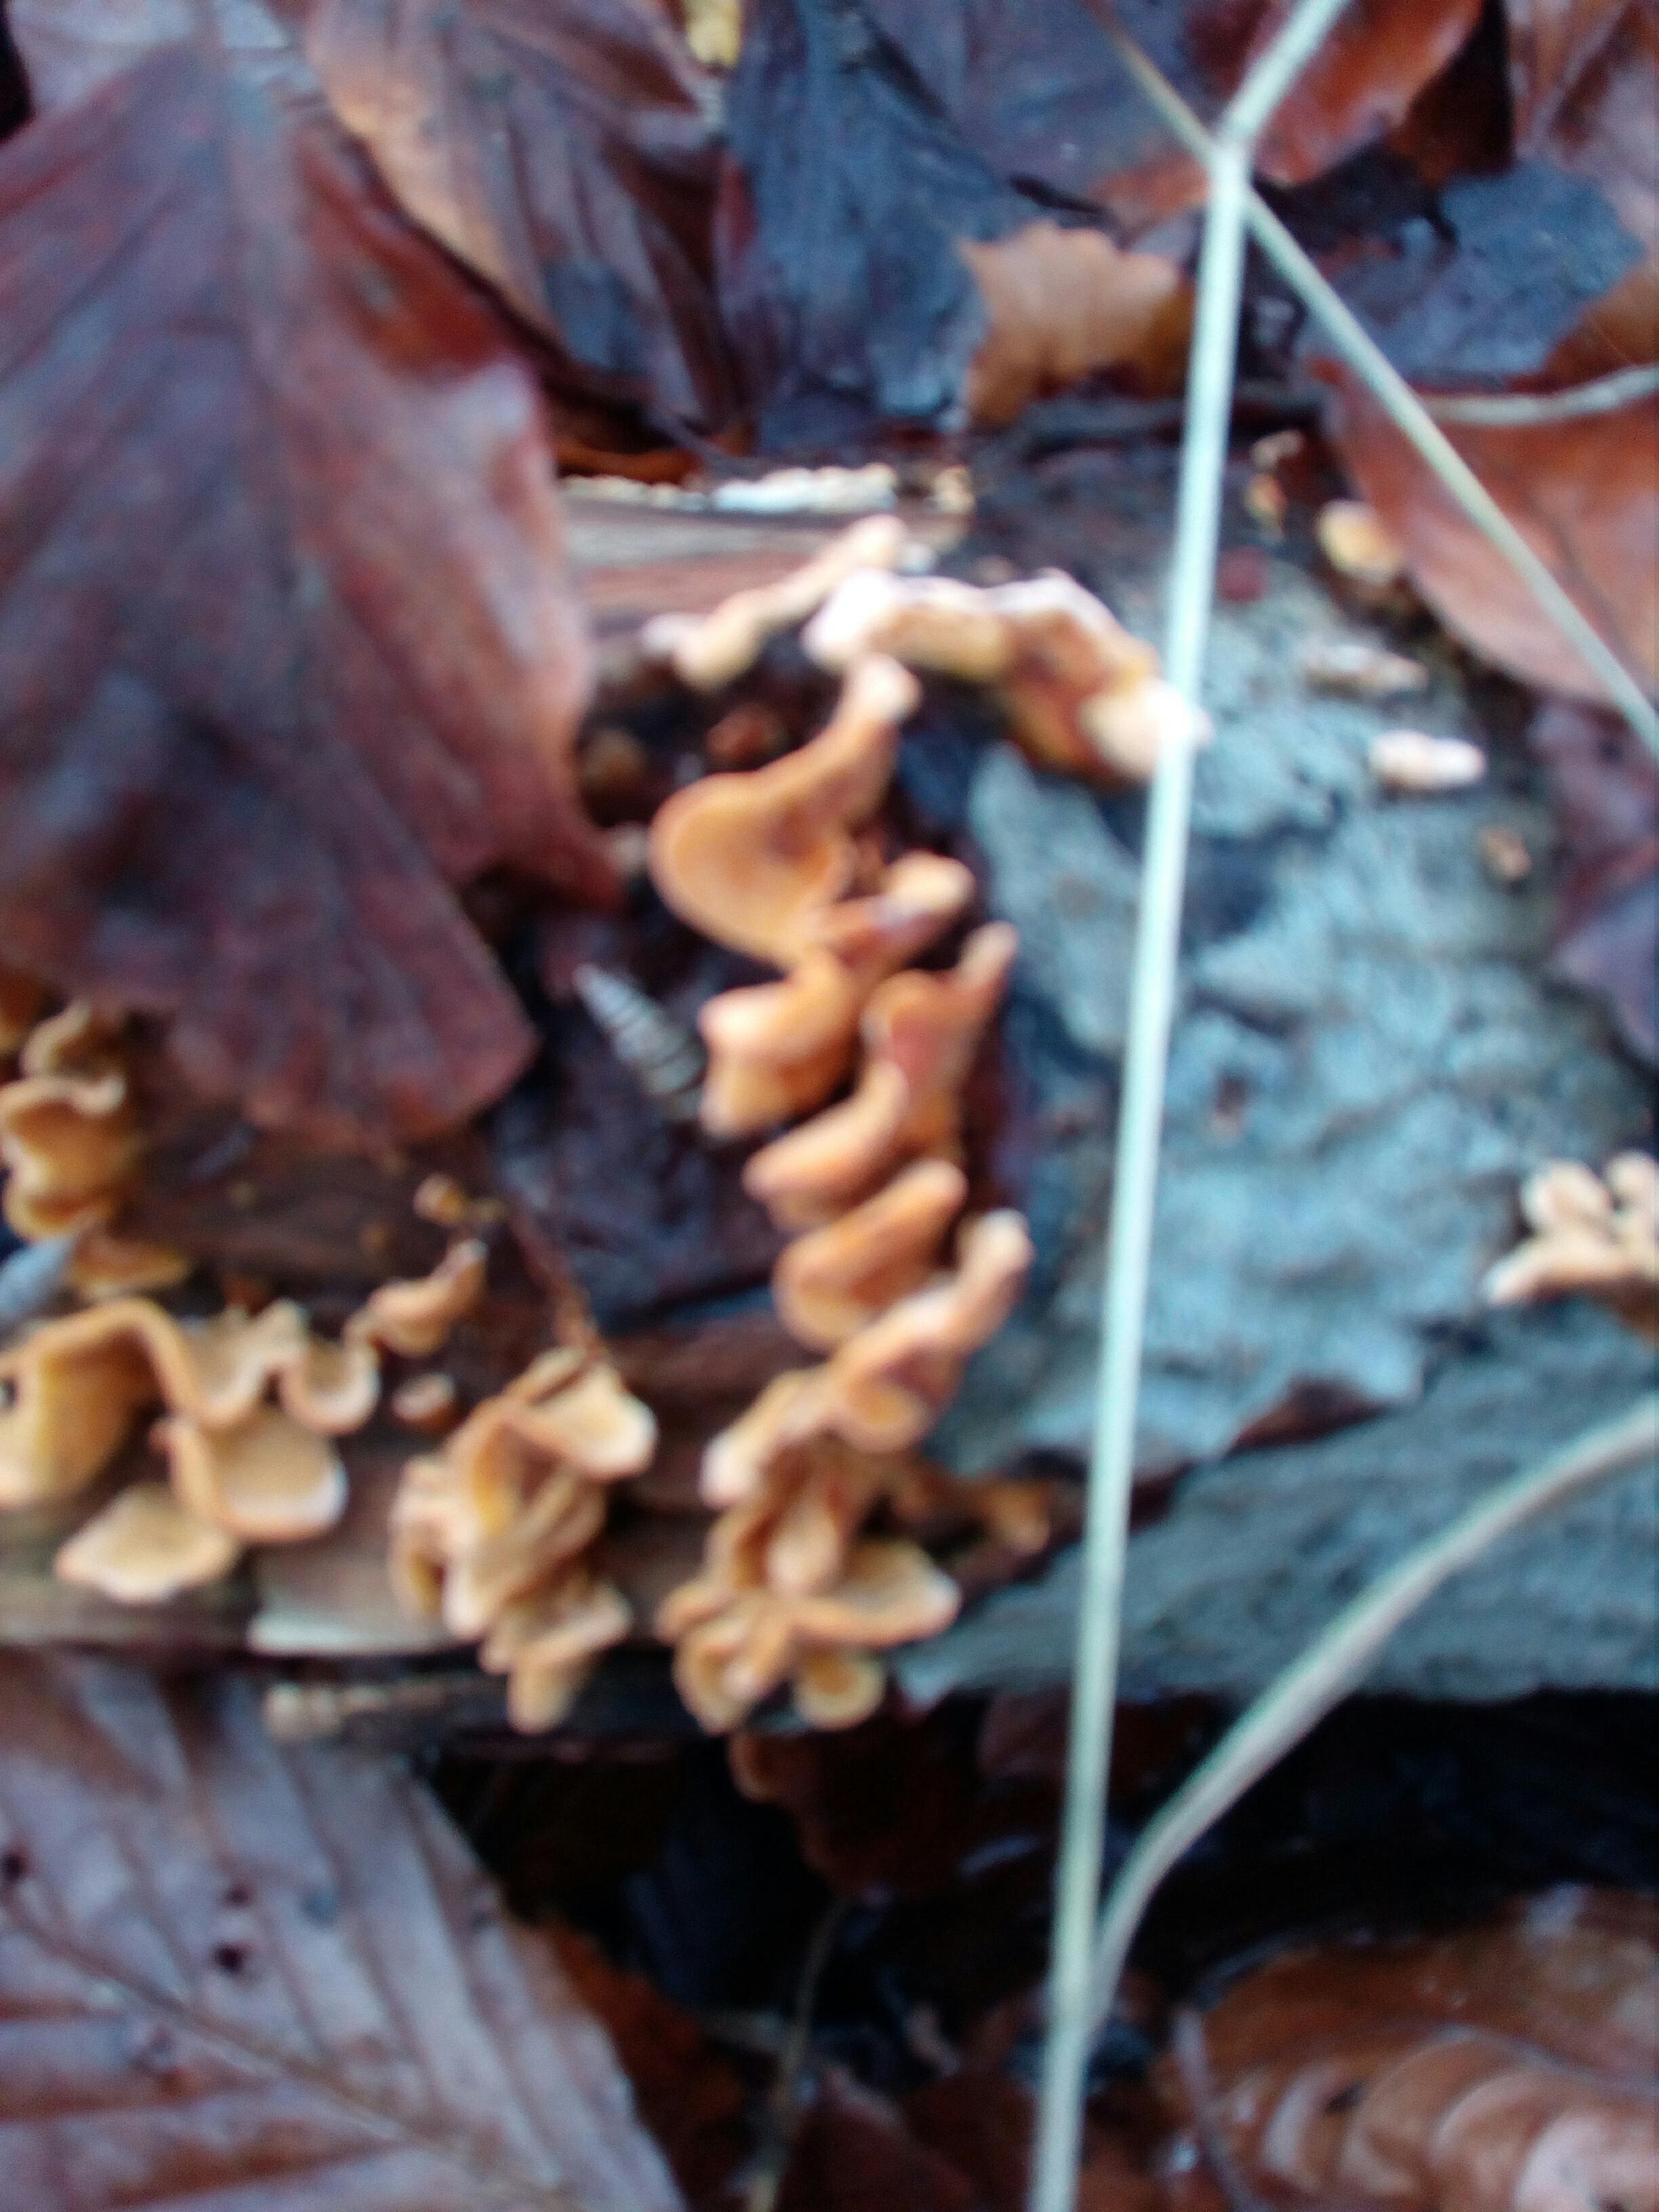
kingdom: Fungi
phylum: Basidiomycota
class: Agaricomycetes
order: Russulales
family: Stereaceae
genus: Stereum
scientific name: Stereum hirsutum
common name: håret lædersvamp
